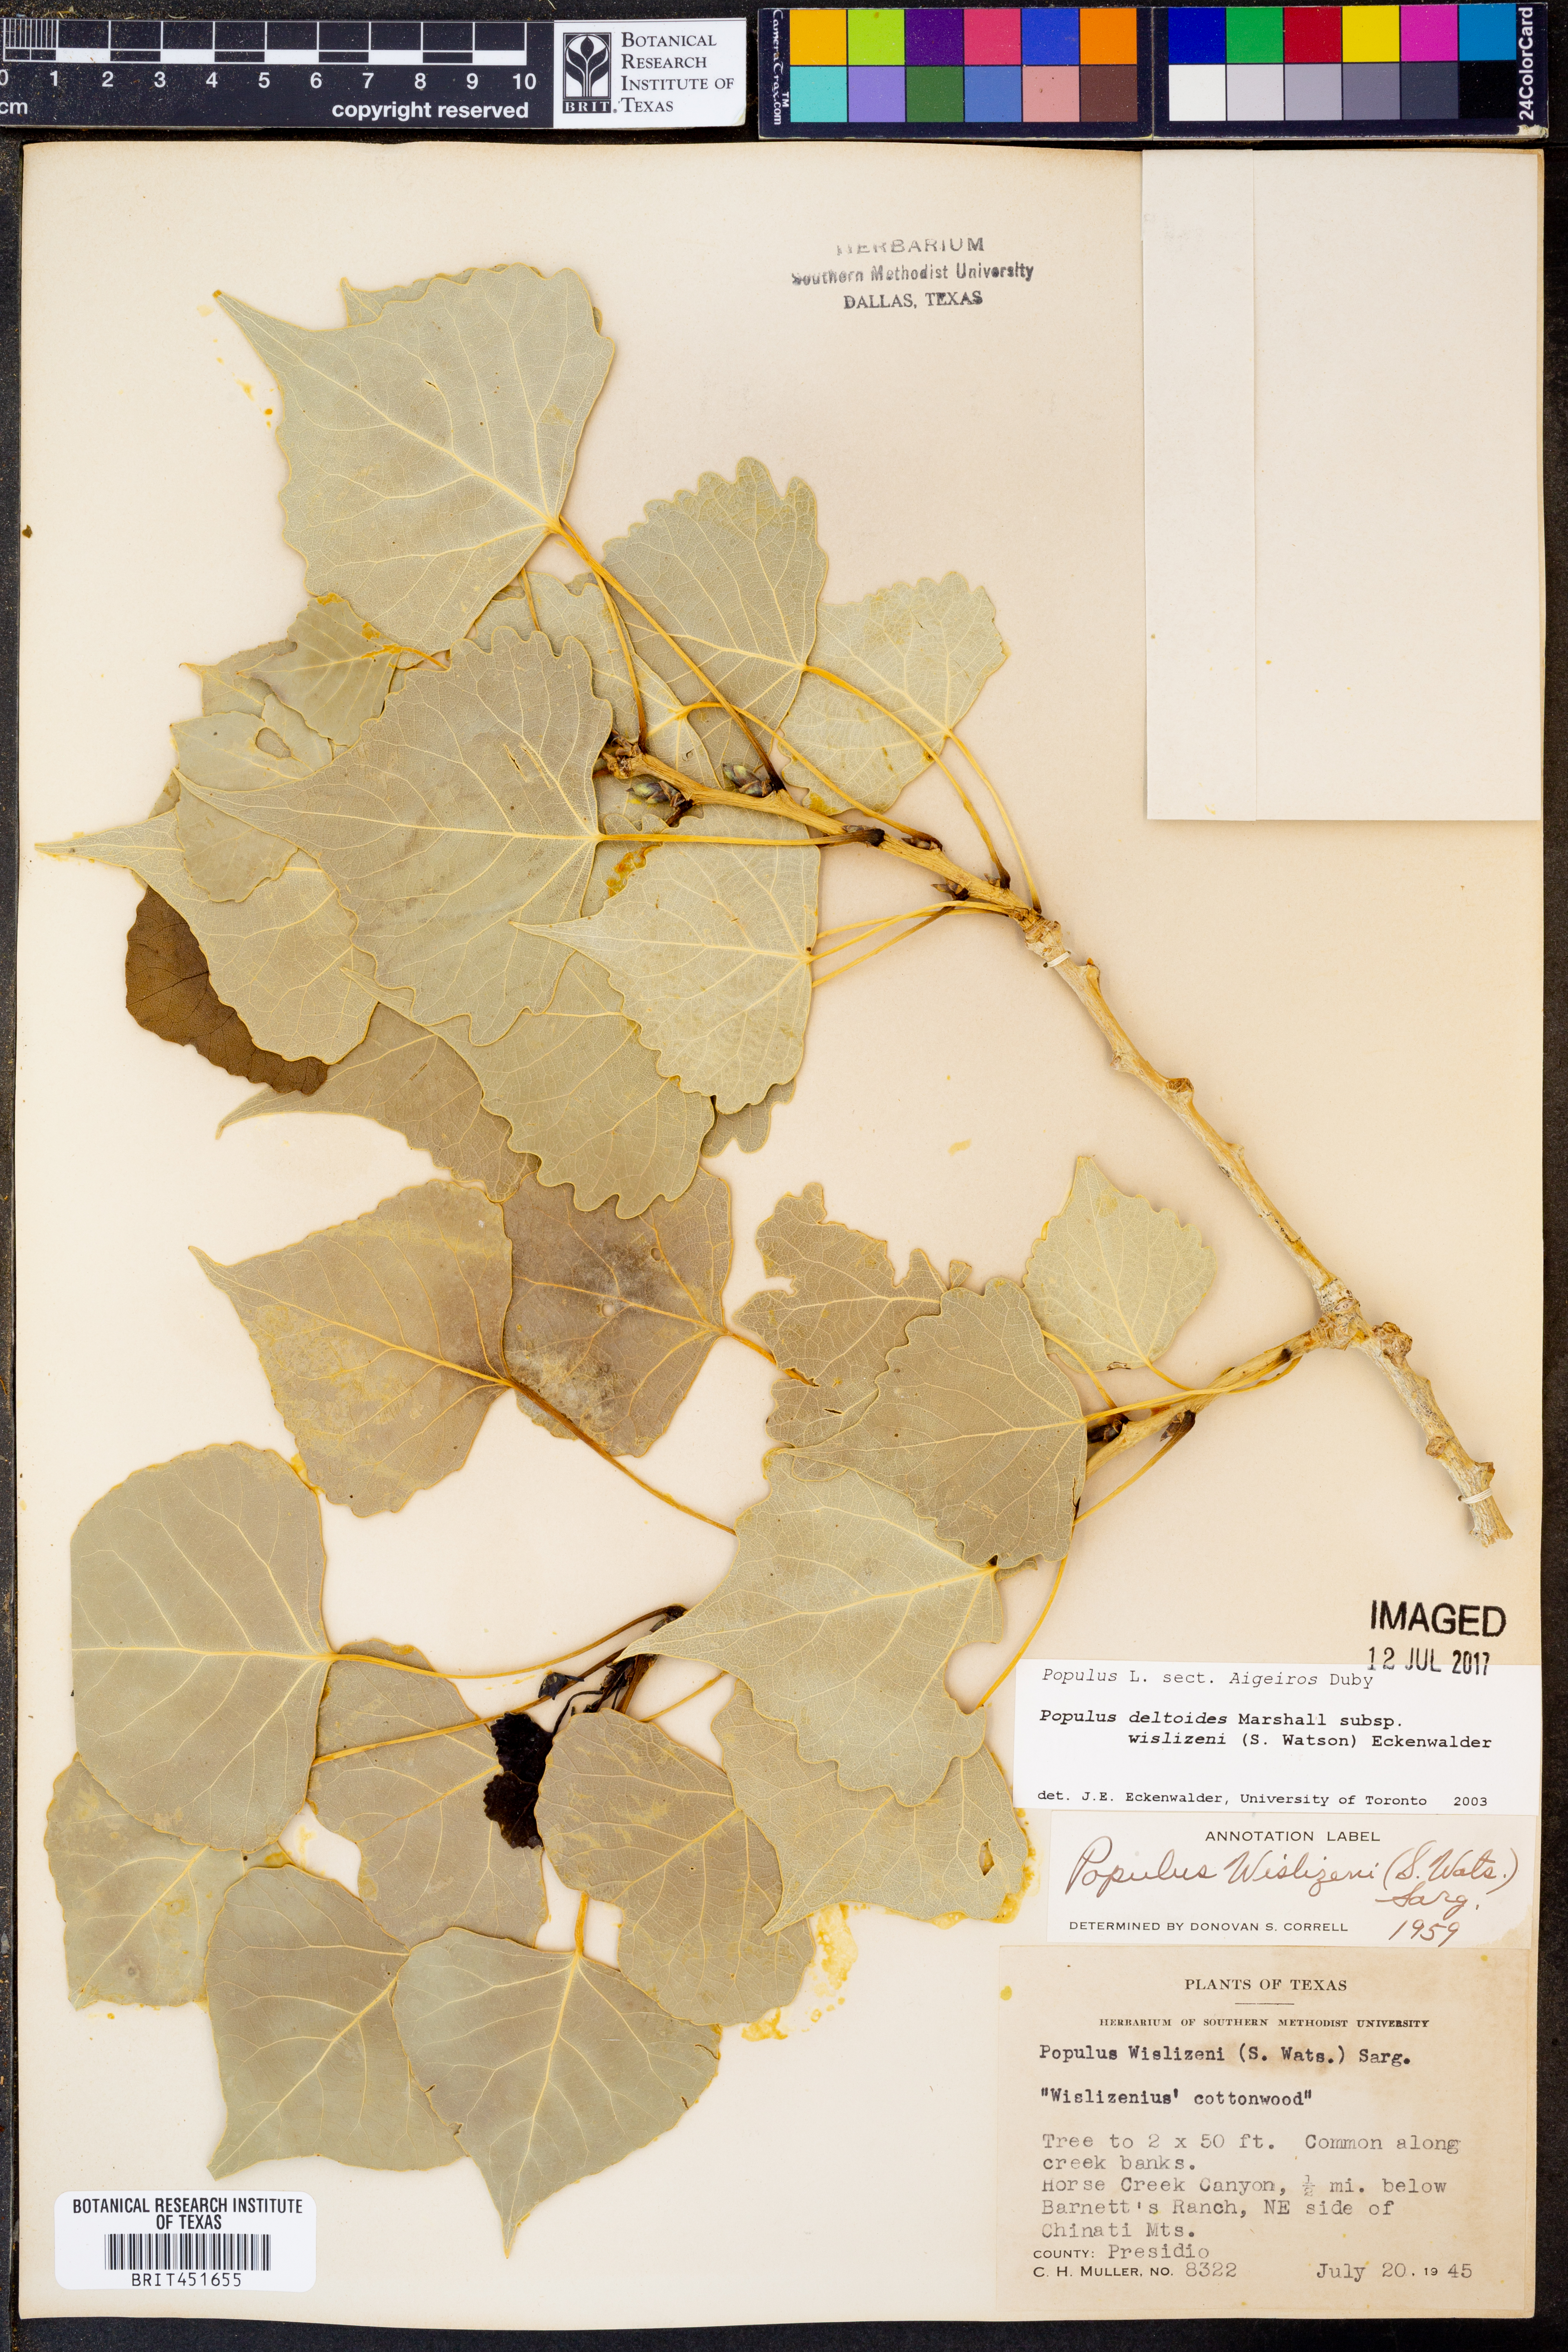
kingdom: Plantae
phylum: Tracheophyta
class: Magnoliopsida
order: Malpighiales
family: Salicaceae
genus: Populus
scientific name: Populus deltoides
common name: Eastern cottonwood
